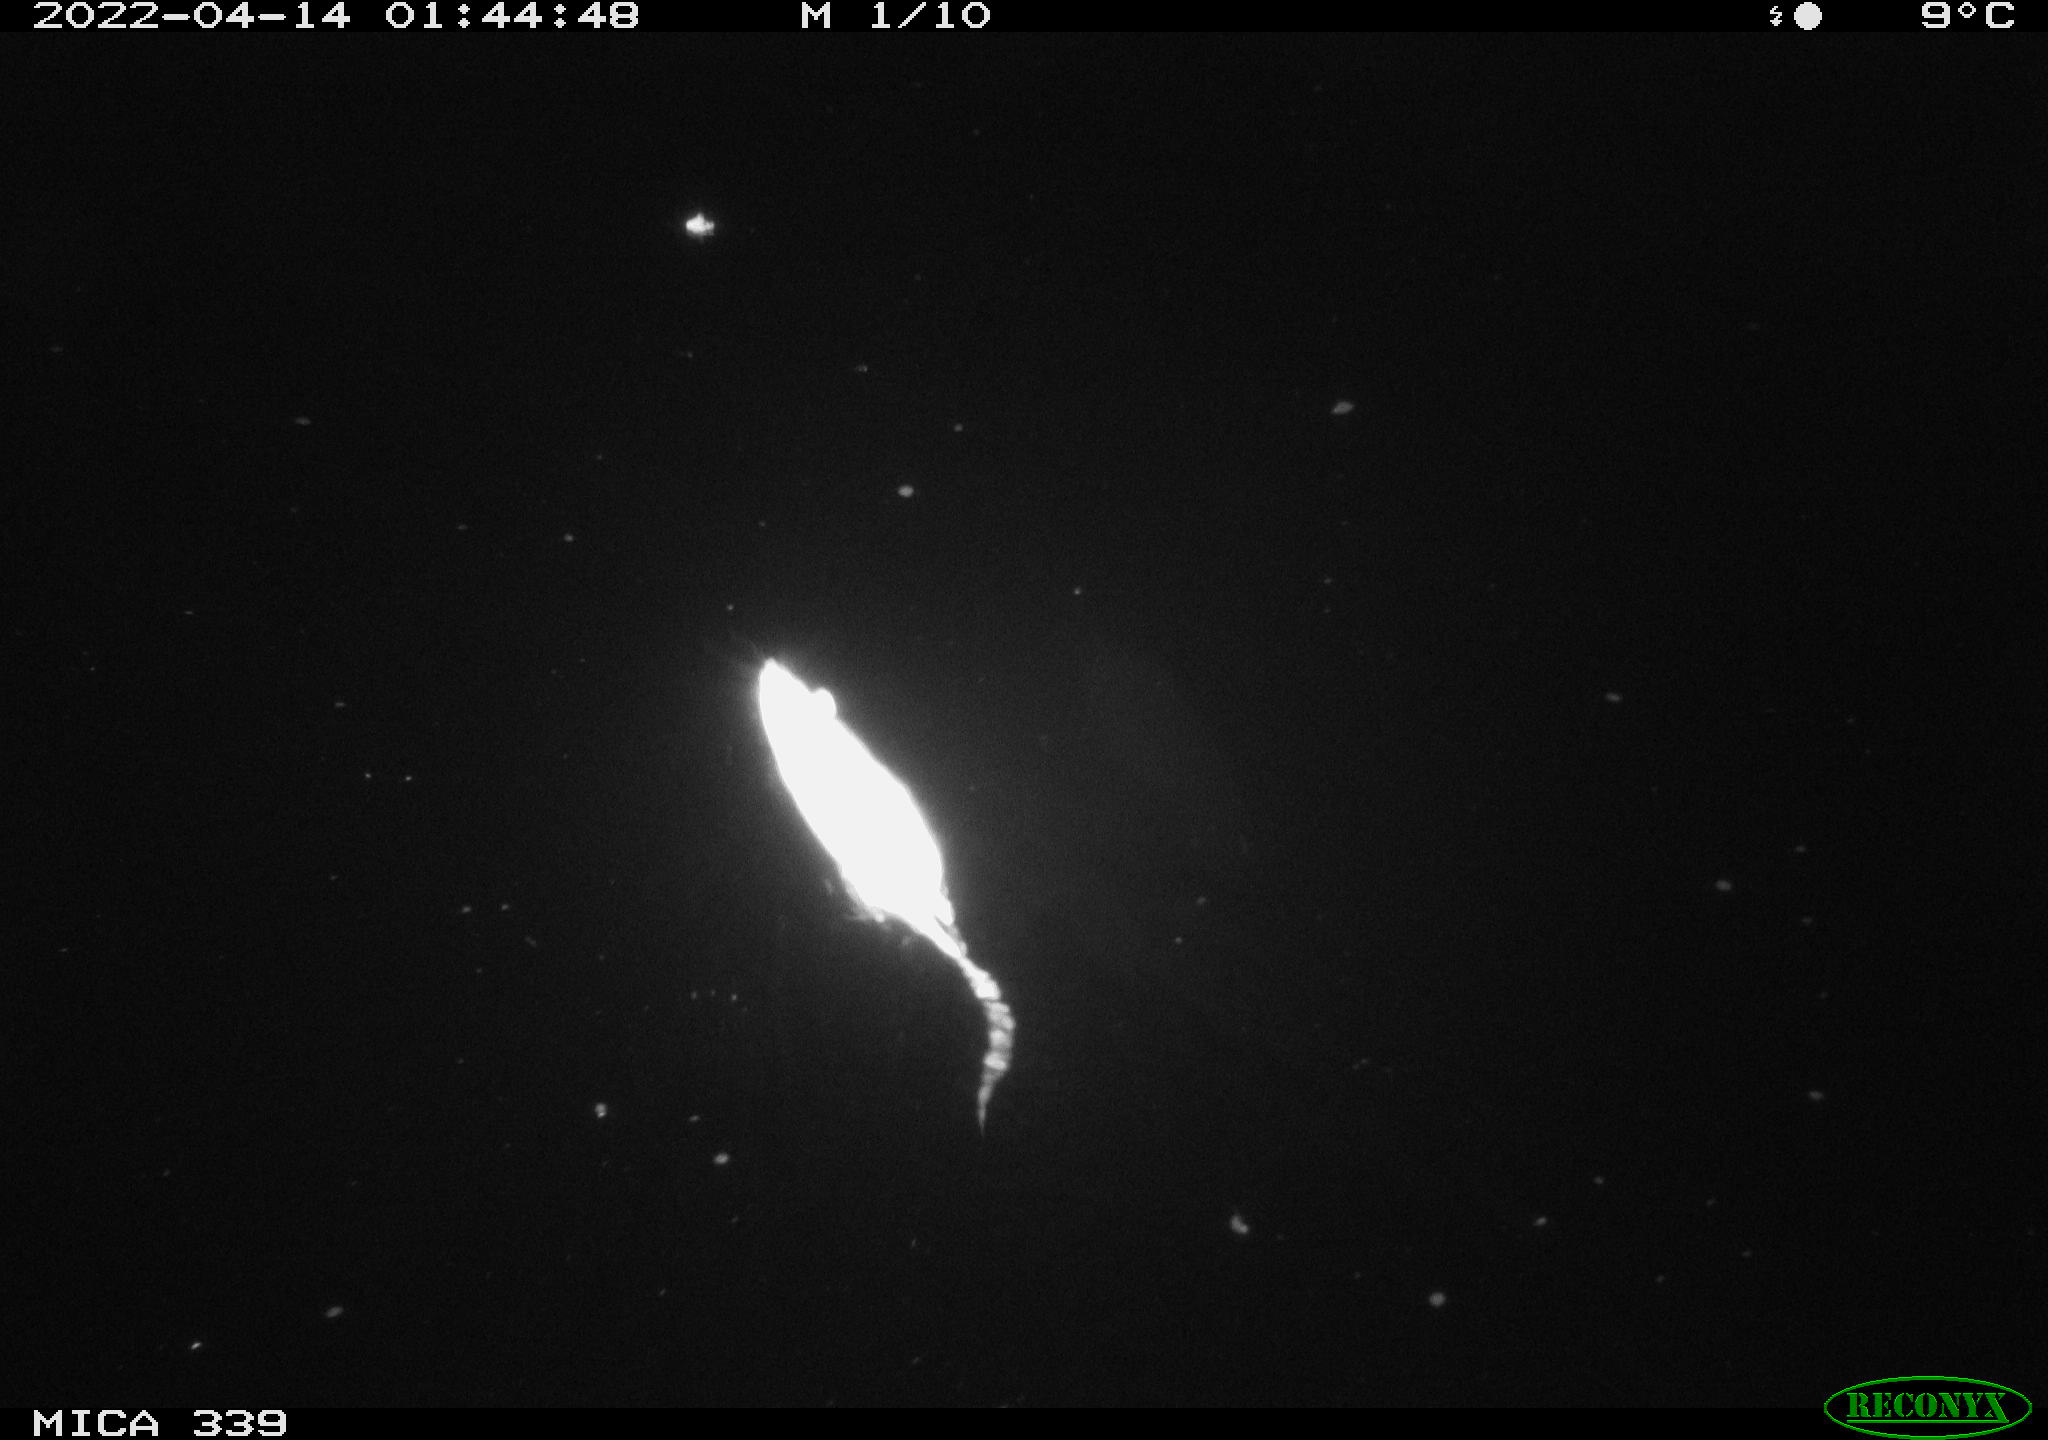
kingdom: Animalia
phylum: Chordata
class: Mammalia
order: Rodentia
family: Muridae
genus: Rattus
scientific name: Rattus norvegicus
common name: Brown rat
